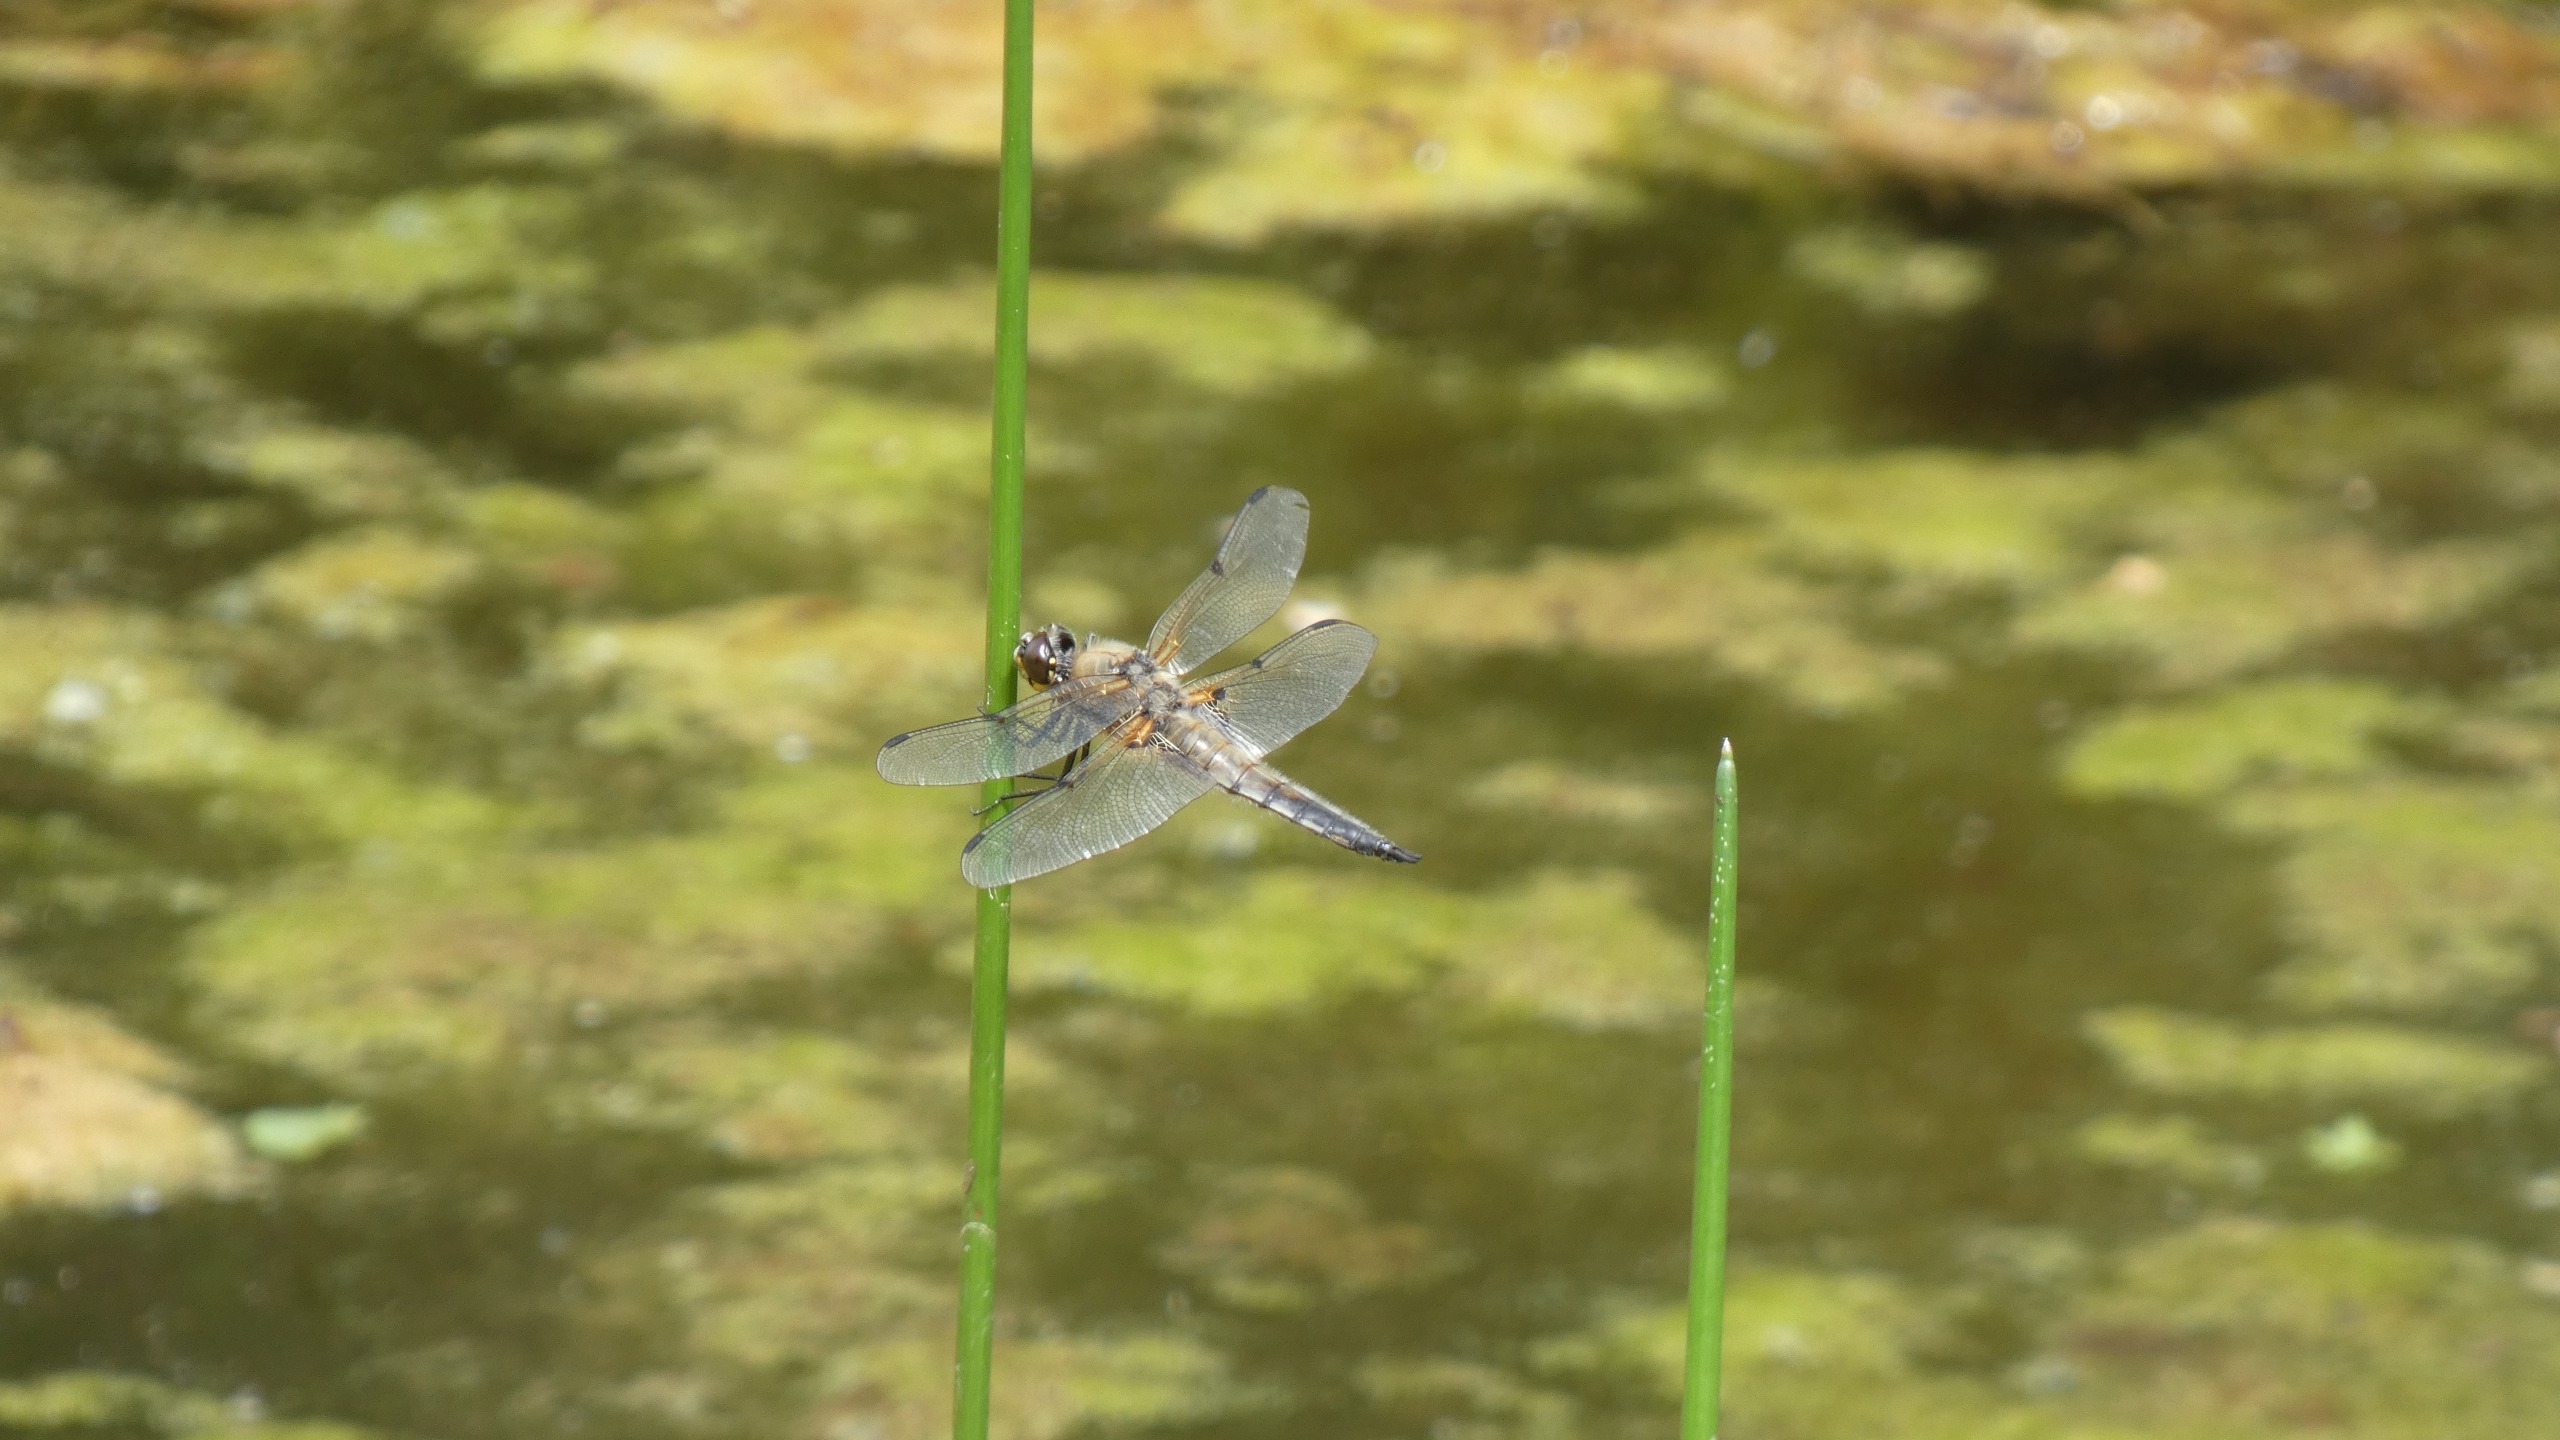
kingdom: Animalia
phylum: Arthropoda
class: Insecta
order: Odonata
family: Libellulidae
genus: Libellula
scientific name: Libellula quadrimaculata
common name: Fireplettet libel
